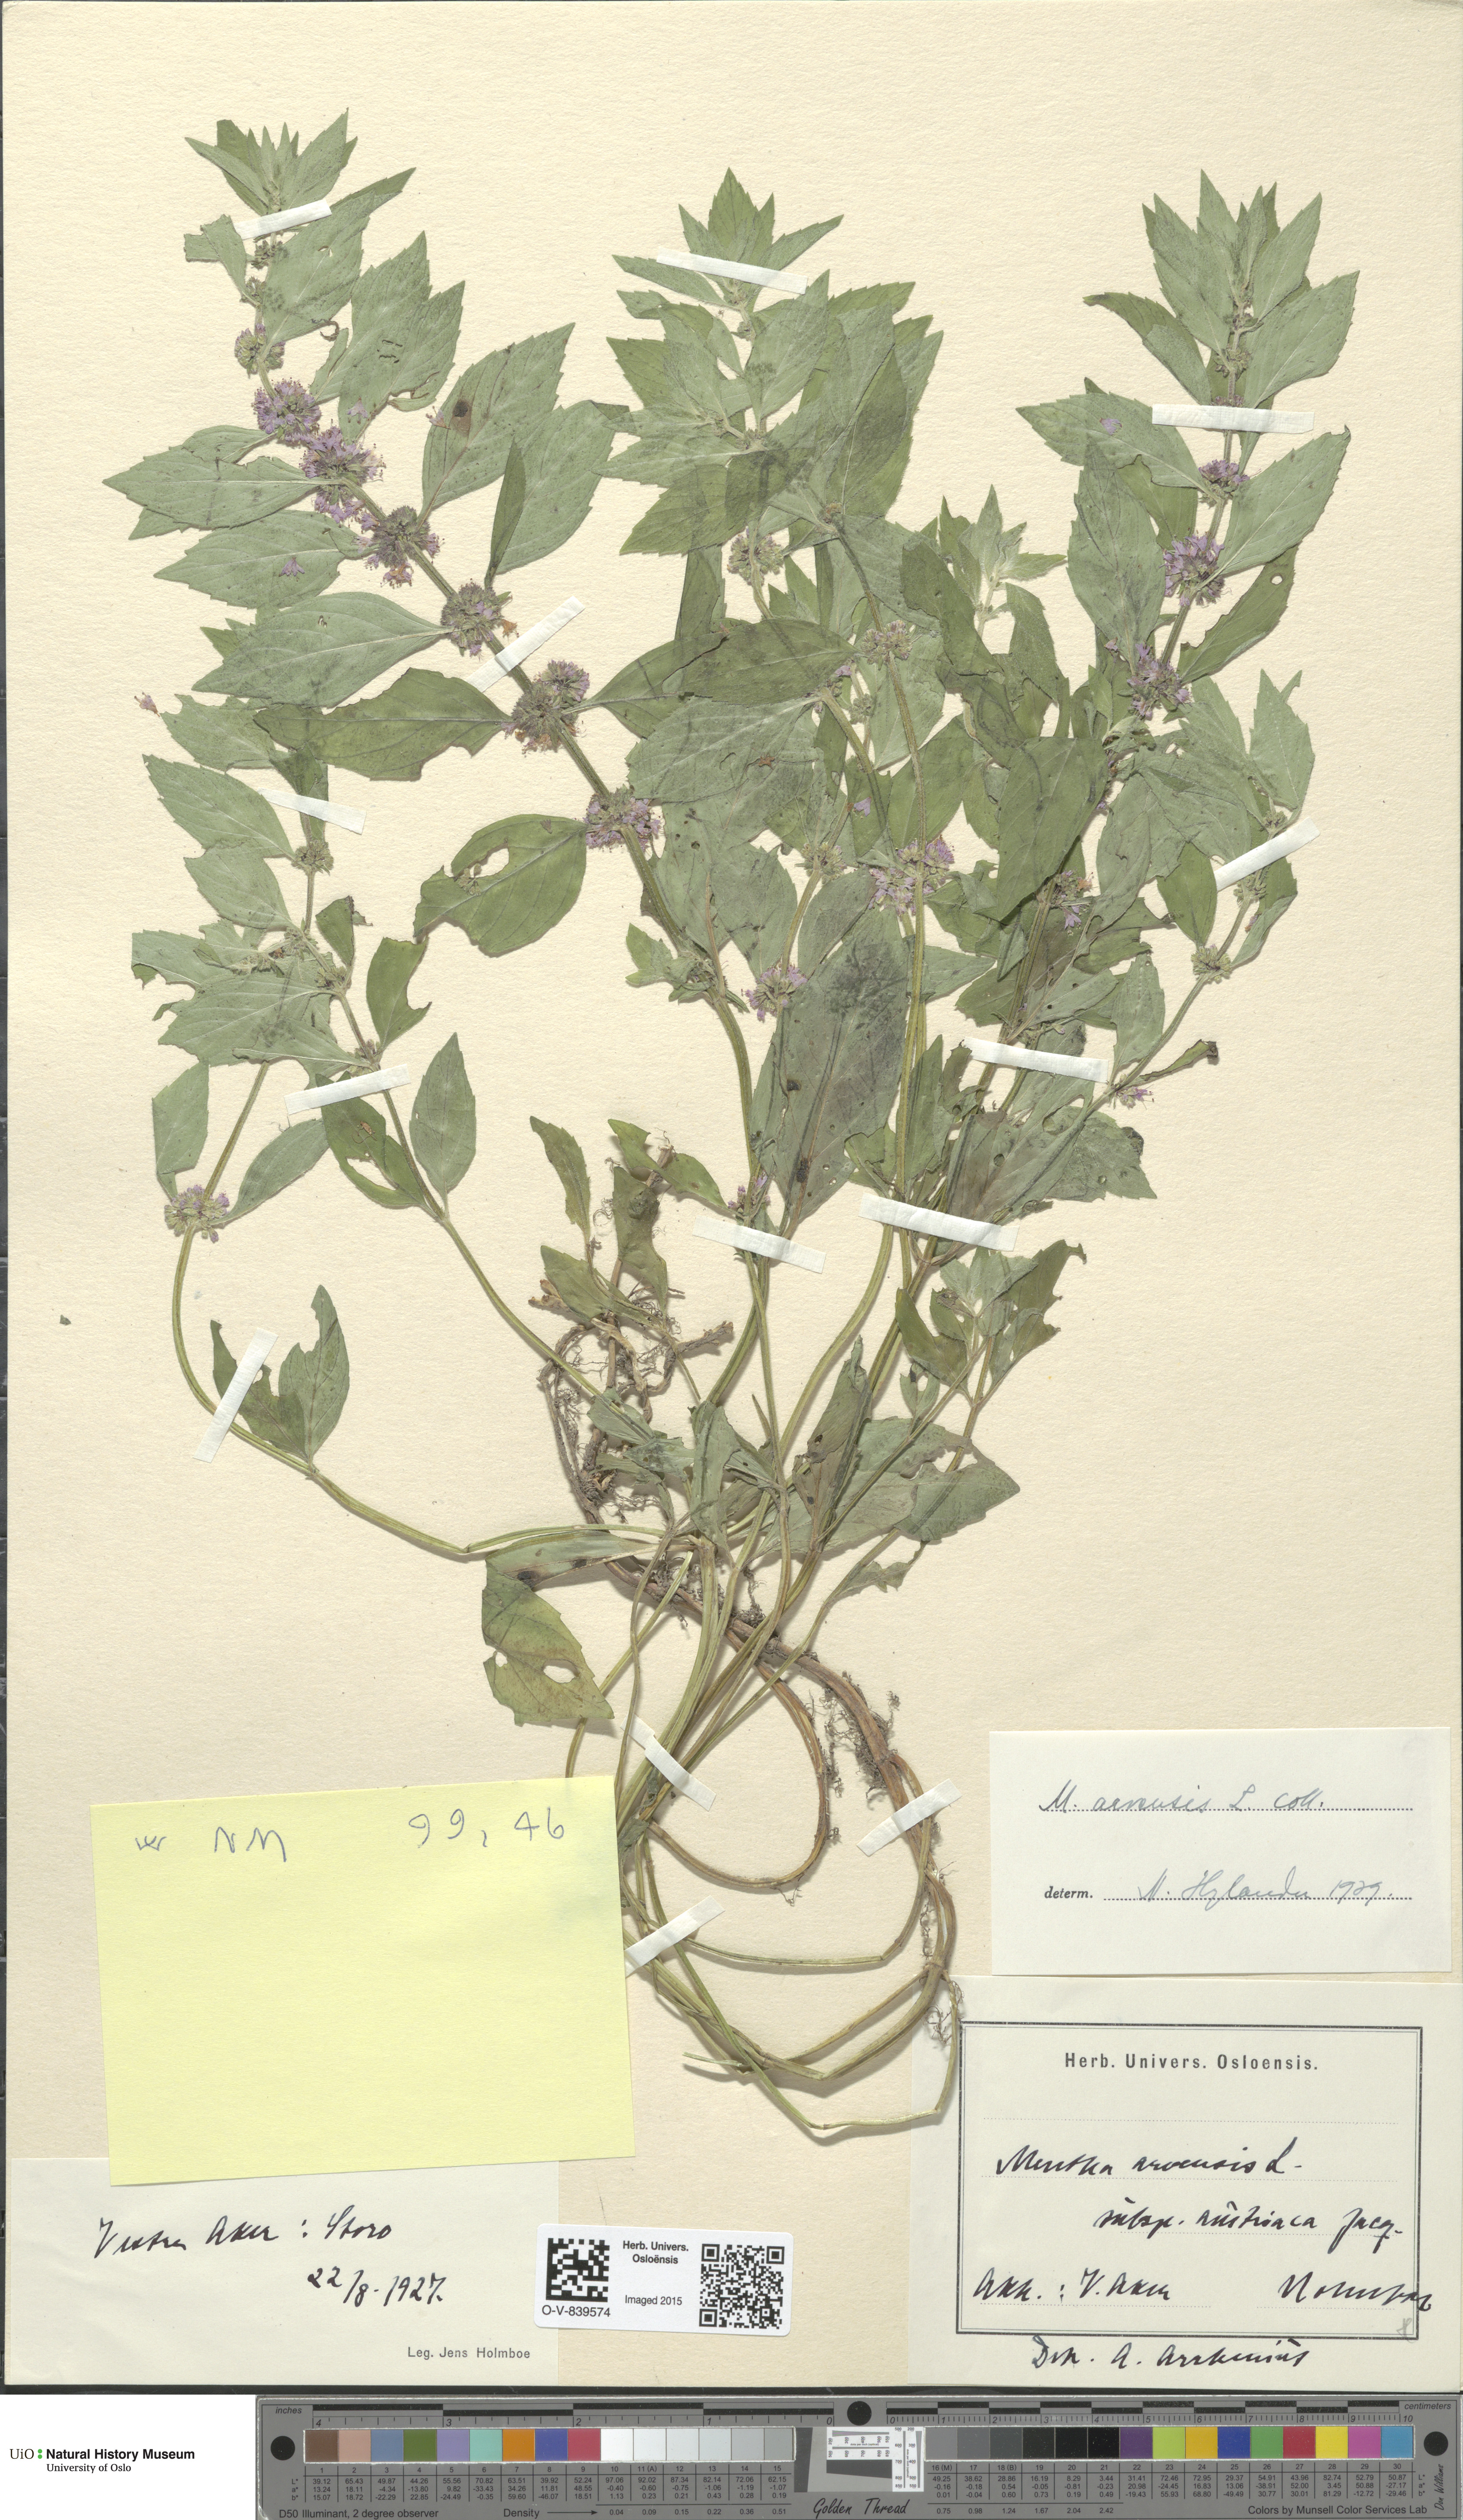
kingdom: Plantae
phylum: Tracheophyta
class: Magnoliopsida
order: Lamiales
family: Lamiaceae
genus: Mentha
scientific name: Mentha arvensis
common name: Corn mint
